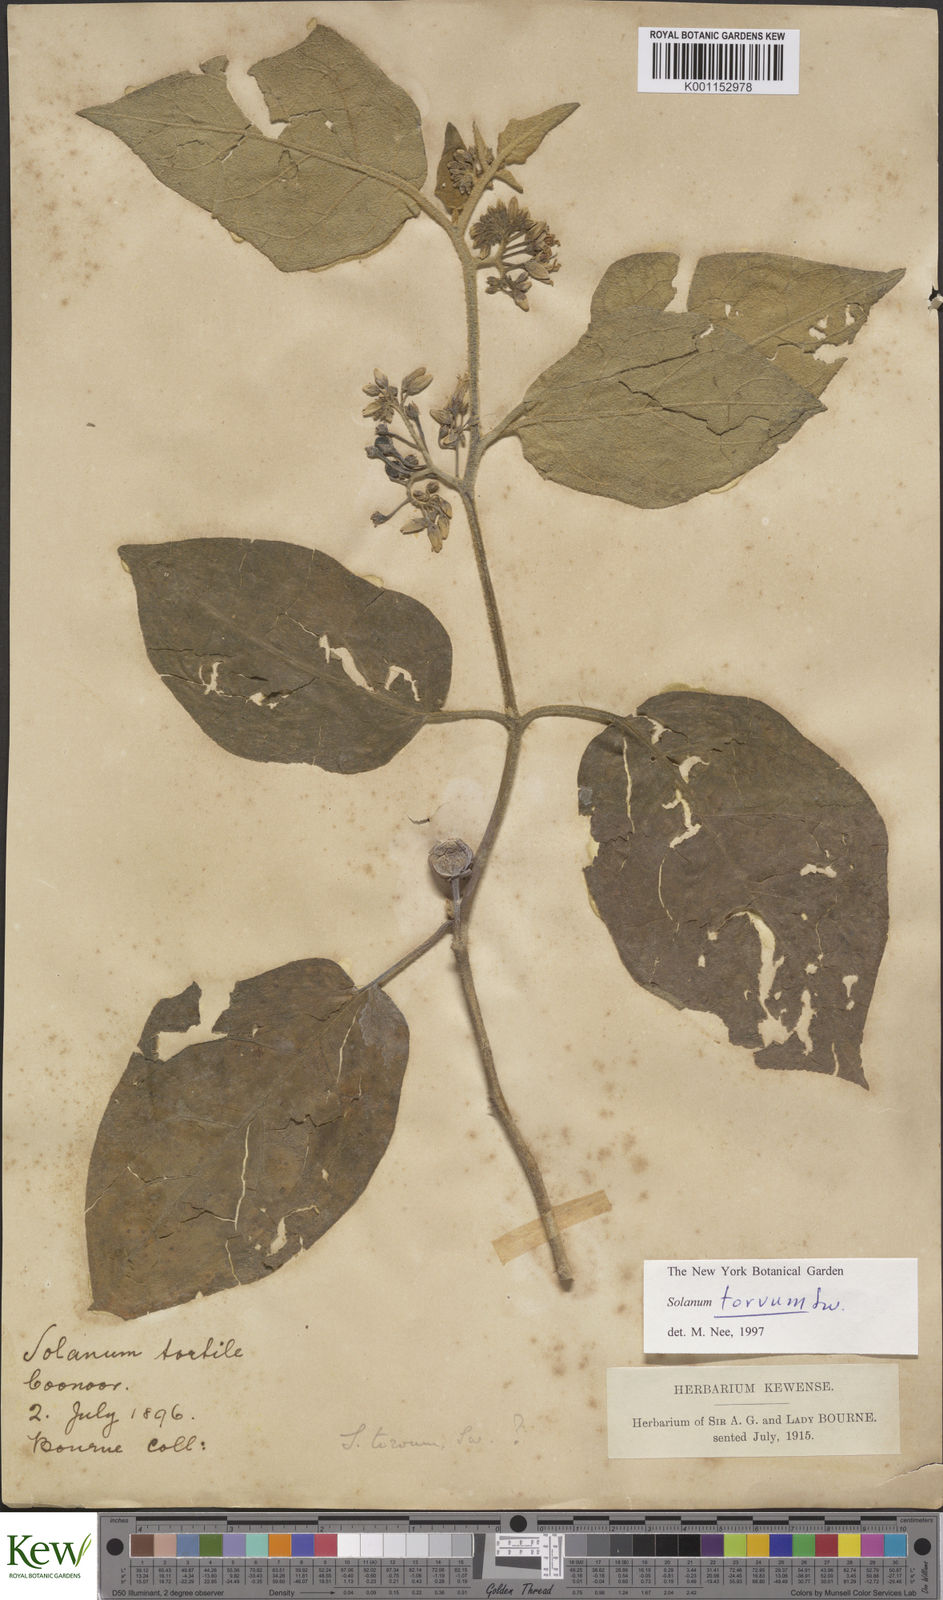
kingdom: Plantae
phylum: Tracheophyta
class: Magnoliopsida
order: Solanales
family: Solanaceae
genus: Solanum
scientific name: Solanum torvum
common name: Turkey berry
